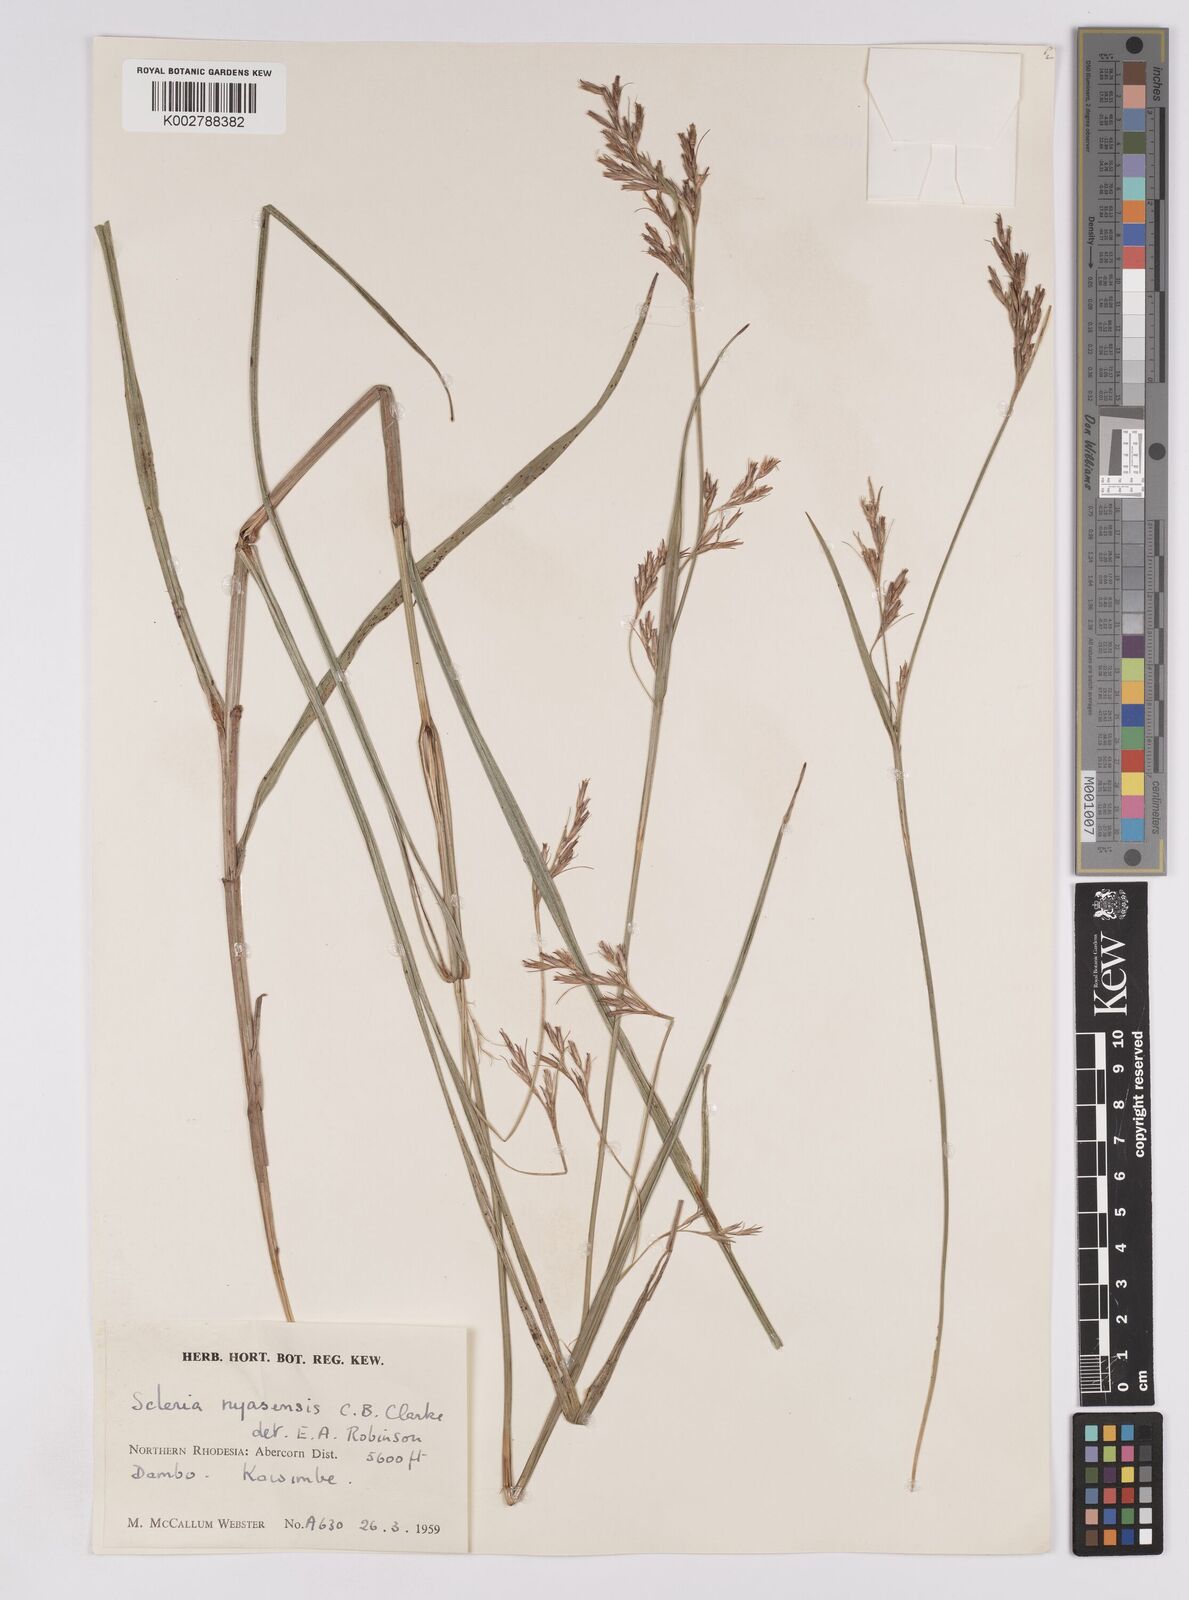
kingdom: Plantae
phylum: Tracheophyta
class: Liliopsida
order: Poales
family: Cyperaceae
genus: Scleria
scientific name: Scleria nyasensis
